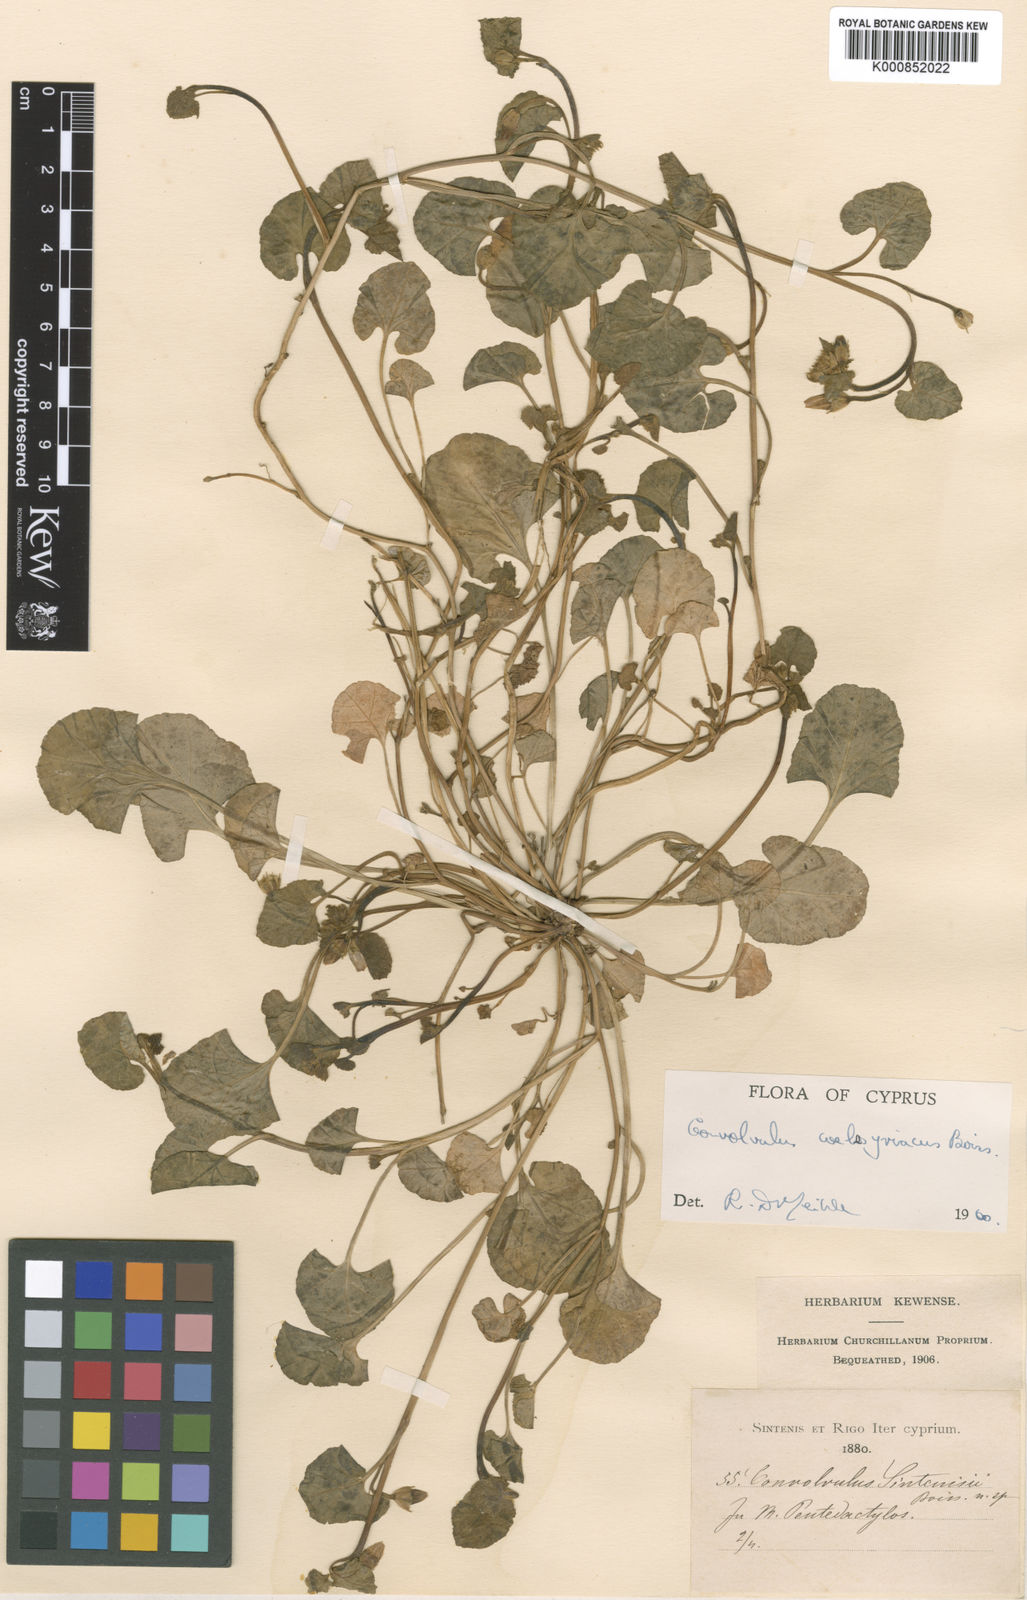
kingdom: Plantae
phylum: Tracheophyta
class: Magnoliopsida
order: Solanales
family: Convolvulaceae
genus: Convolvulus
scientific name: Convolvulus coelesyriacus
